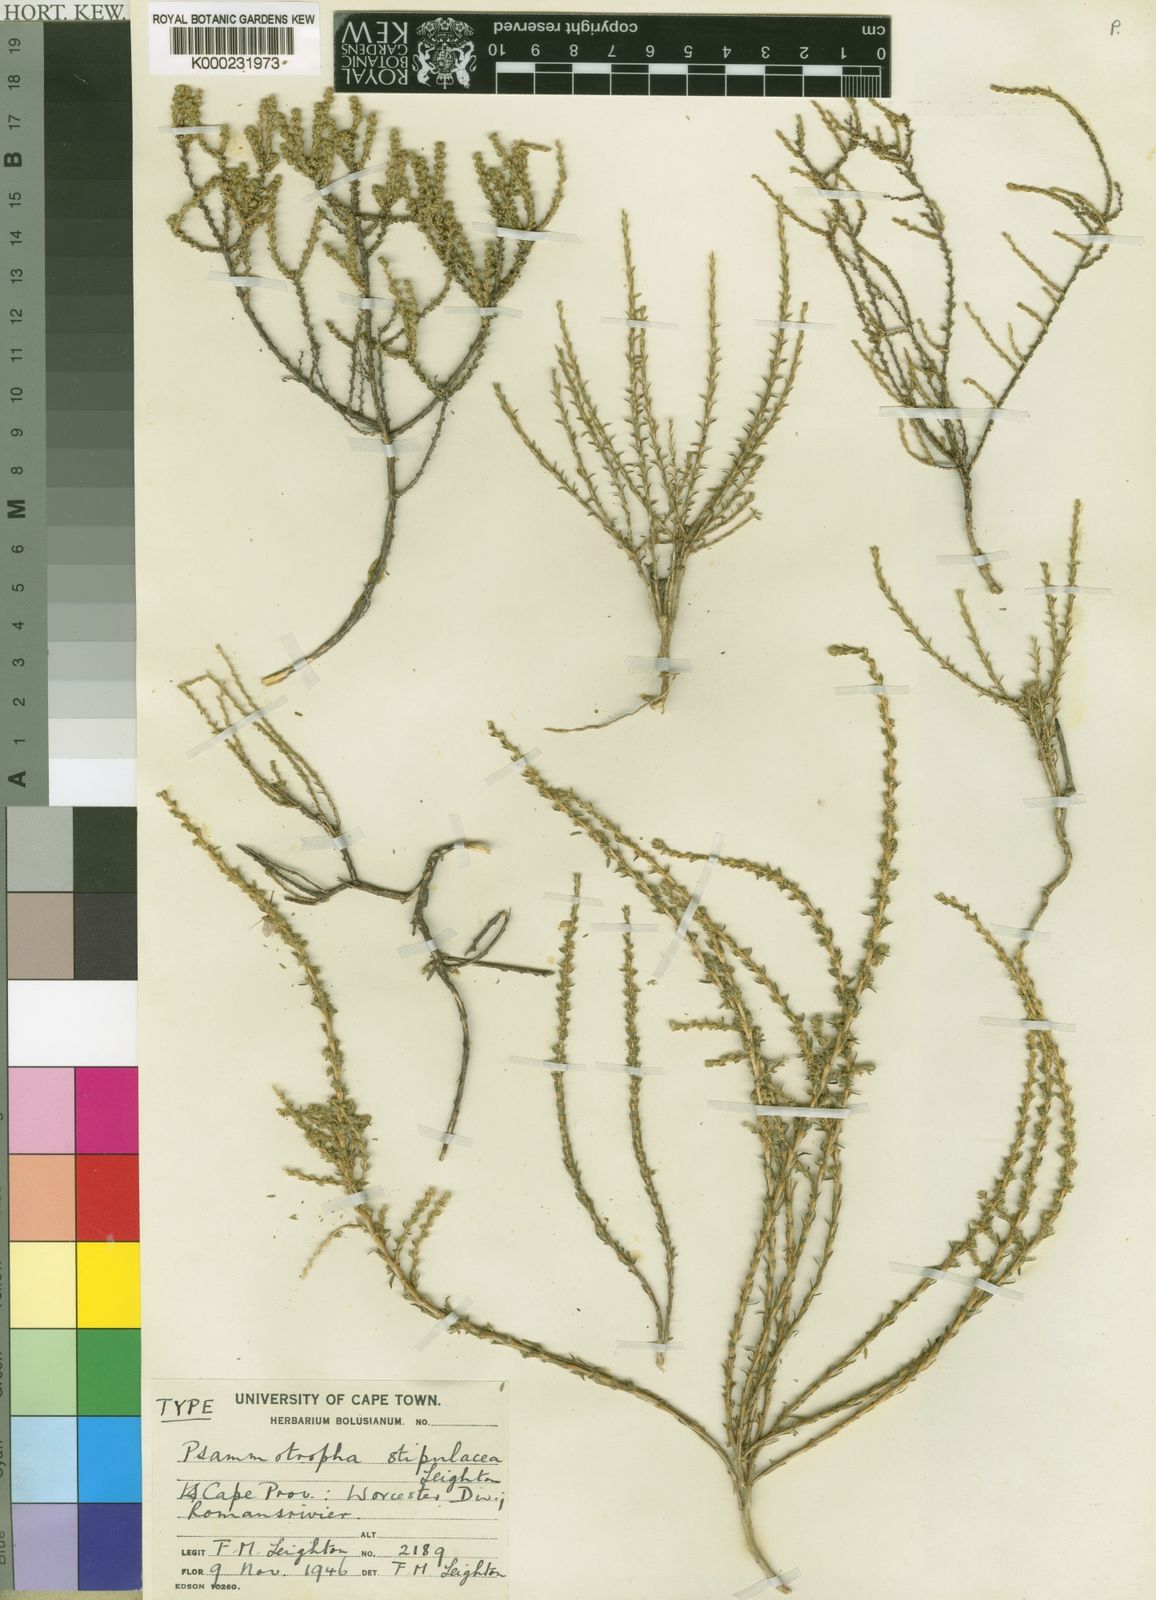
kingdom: Plantae
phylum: Tracheophyta
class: Magnoliopsida
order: Caryophyllales
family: Molluginaceae
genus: Polpoda
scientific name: Polpoda stipulacea
